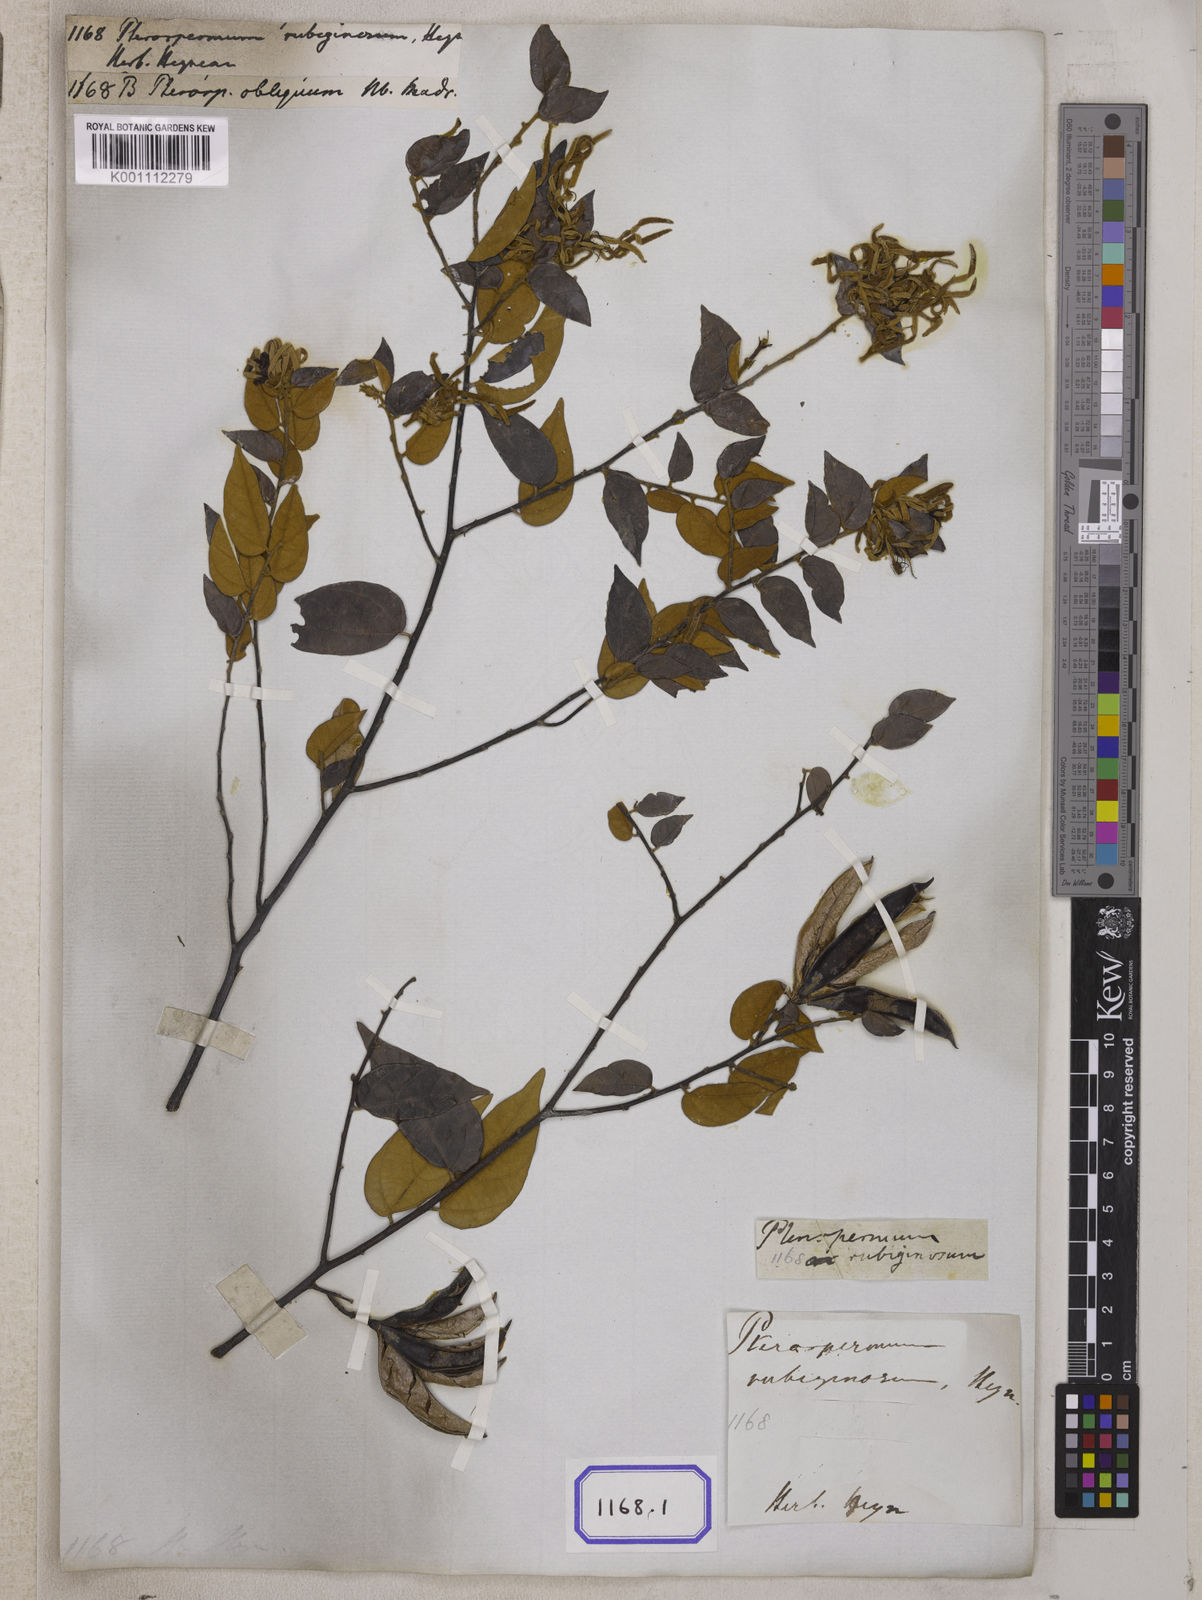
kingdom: Plantae
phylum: Tracheophyta
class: Magnoliopsida
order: Malvales
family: Malvaceae
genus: Pterospermum
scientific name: Pterospermum
